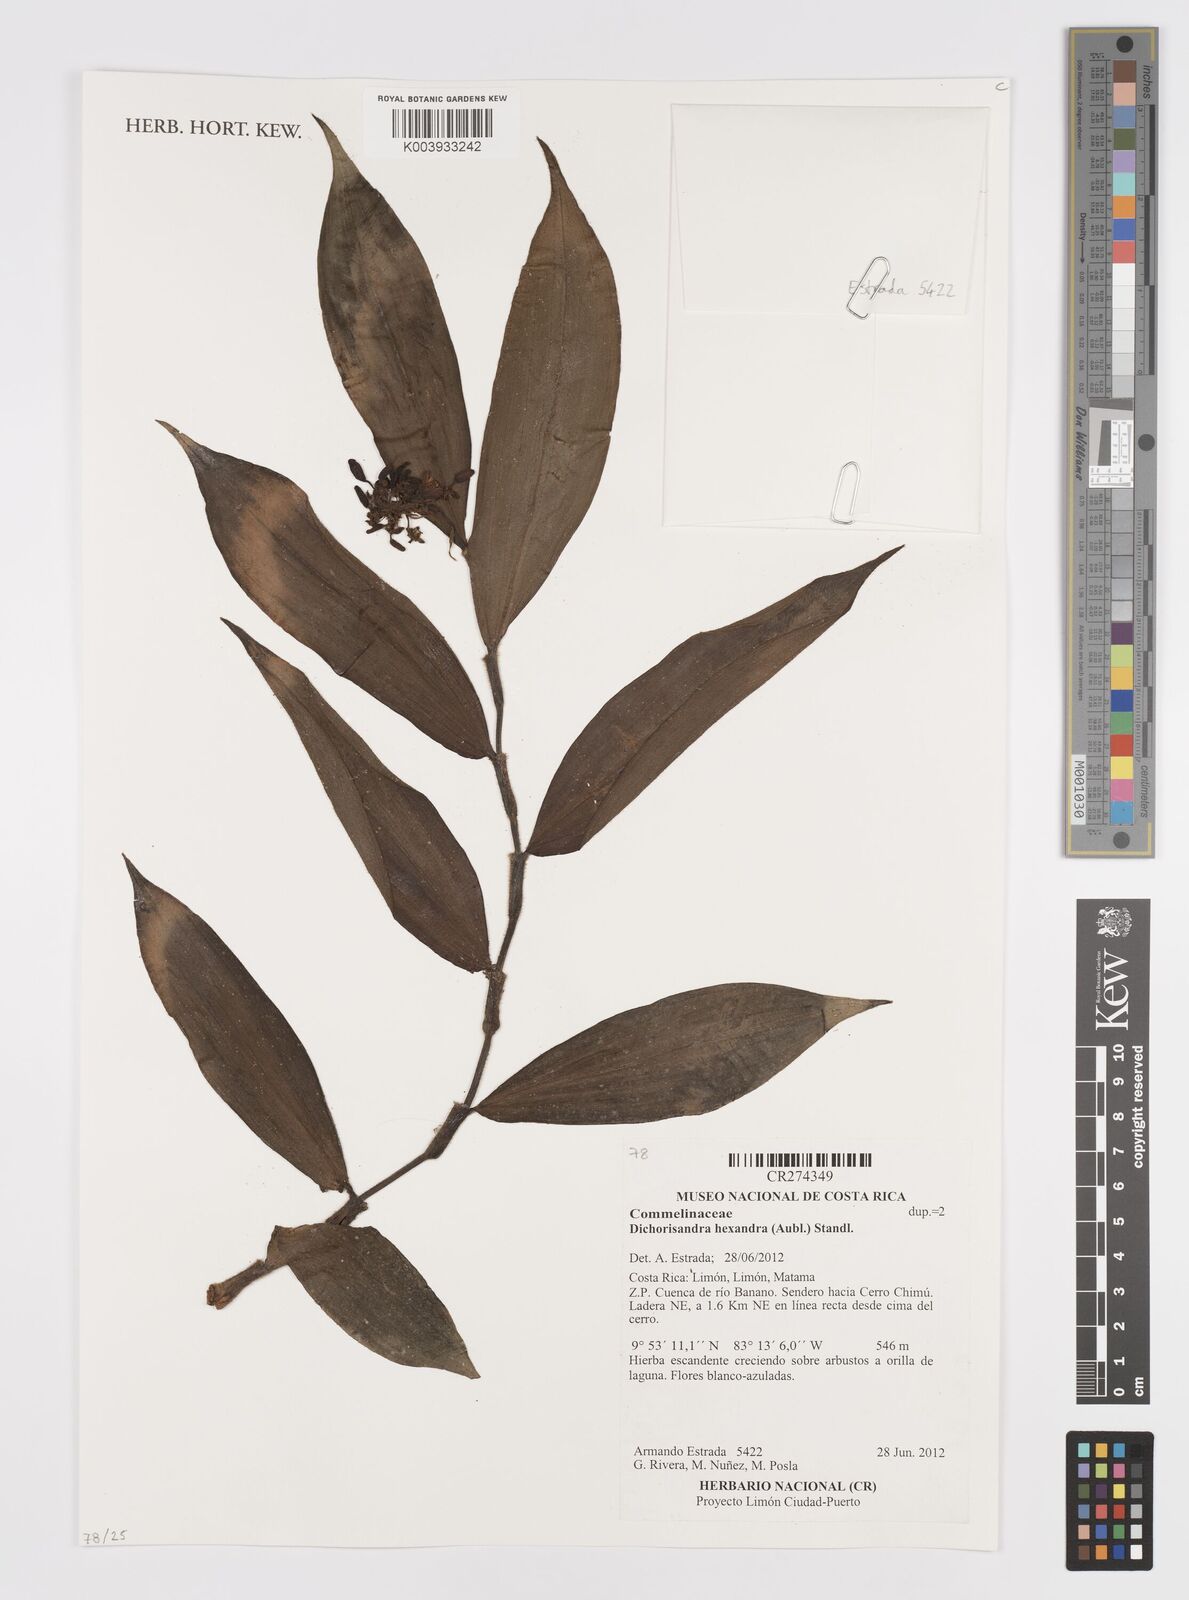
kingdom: Plantae
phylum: Tracheophyta
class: Liliopsida
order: Commelinales
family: Commelinaceae
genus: Dichorisandra
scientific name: Dichorisandra hexandra
